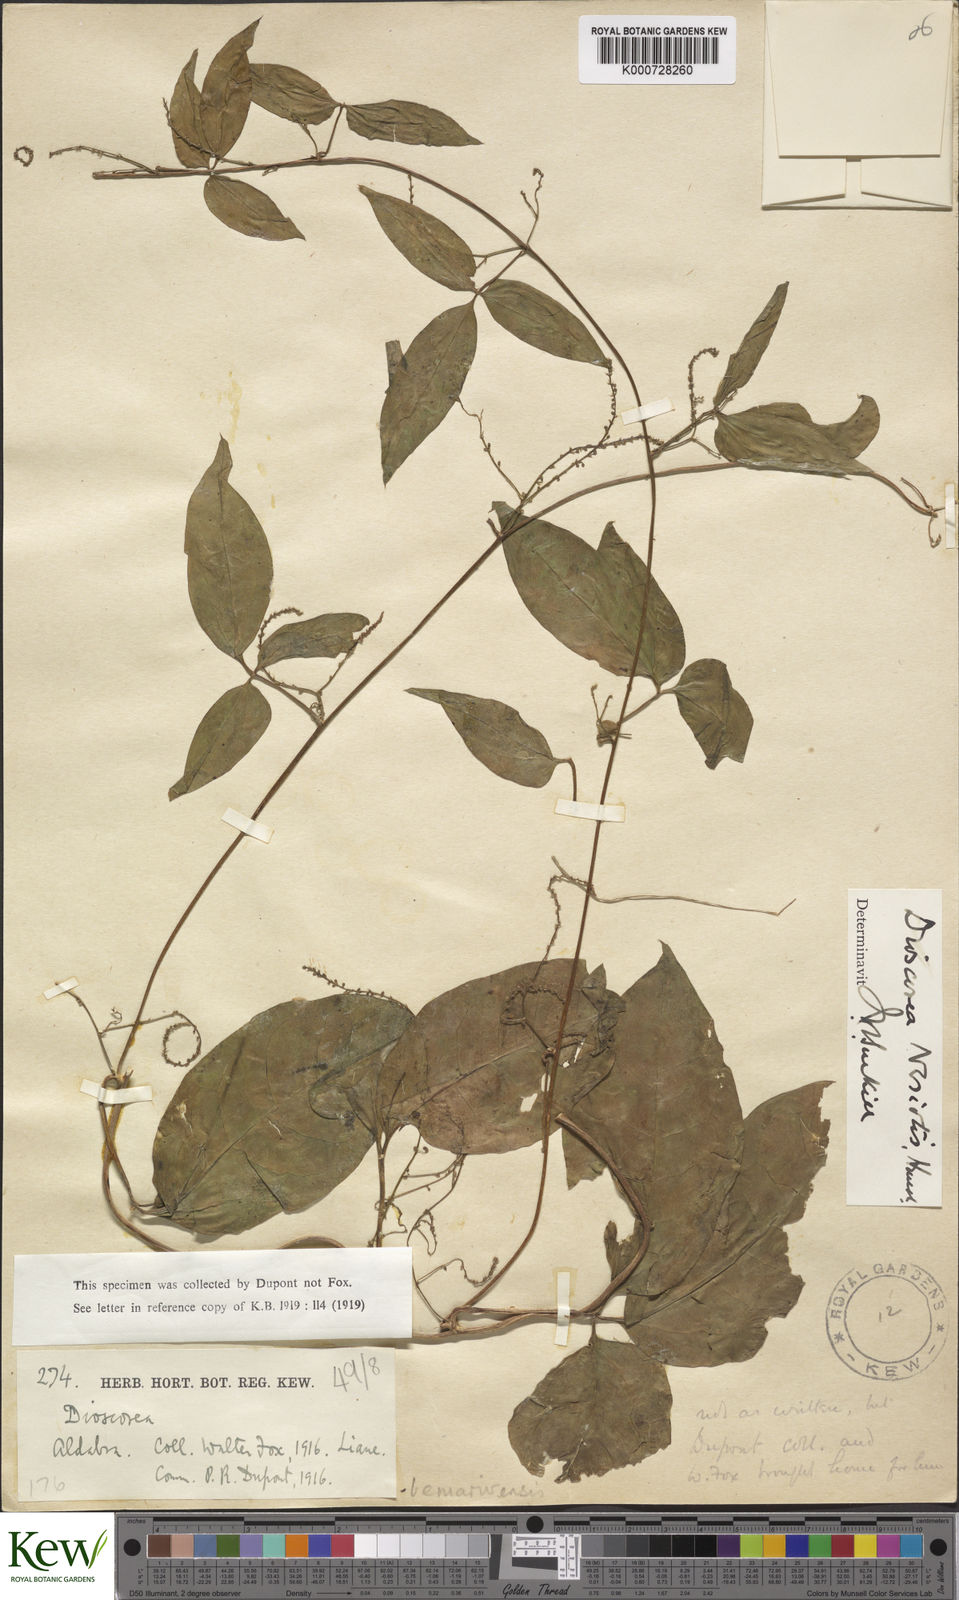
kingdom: Plantae
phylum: Tracheophyta
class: Liliopsida
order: Dioscoreales
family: Dioscoreaceae
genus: Dioscorea
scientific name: Dioscorea bemarivensis
